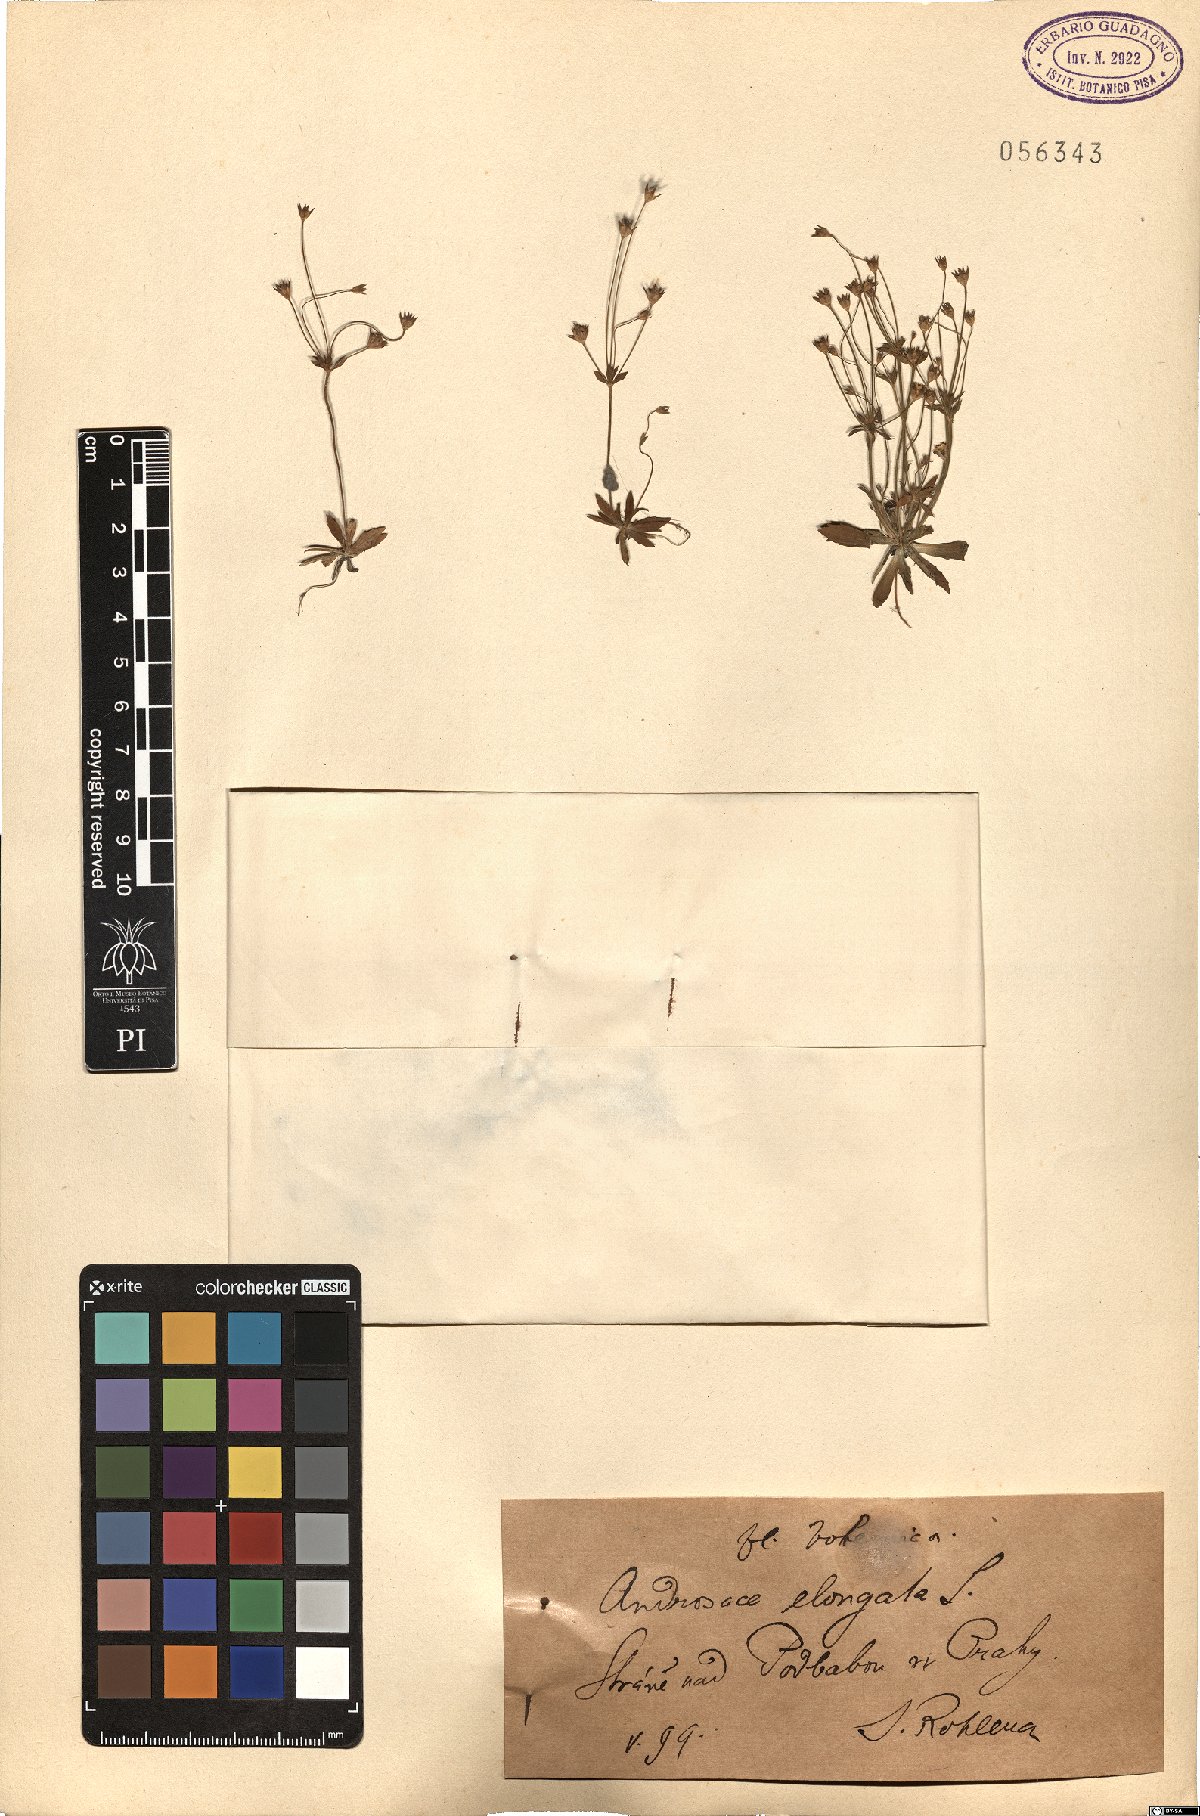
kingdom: Plantae
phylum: Tracheophyta
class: Magnoliopsida
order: Ericales
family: Primulaceae
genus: Androsace
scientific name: Androsace elongata
